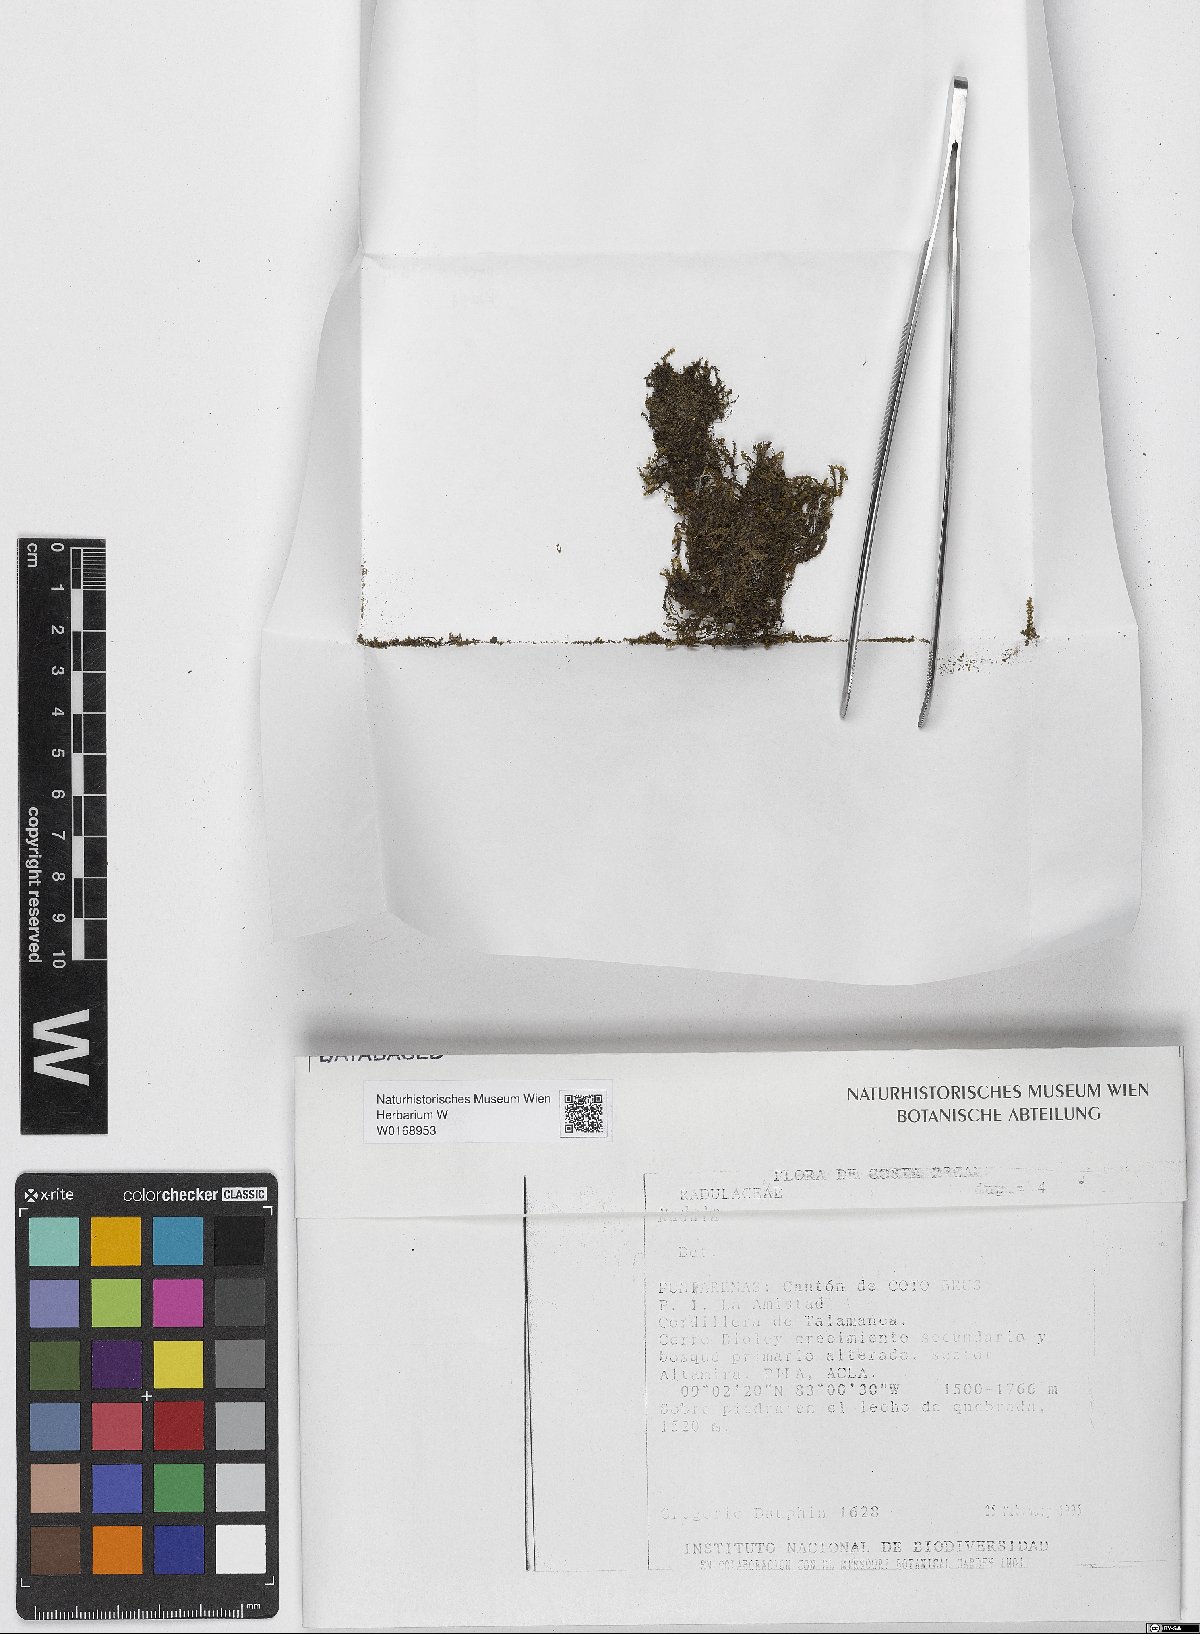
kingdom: Plantae
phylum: Marchantiophyta
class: Jungermanniopsida
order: Porellales
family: Radulaceae
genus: Radula
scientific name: Radula
